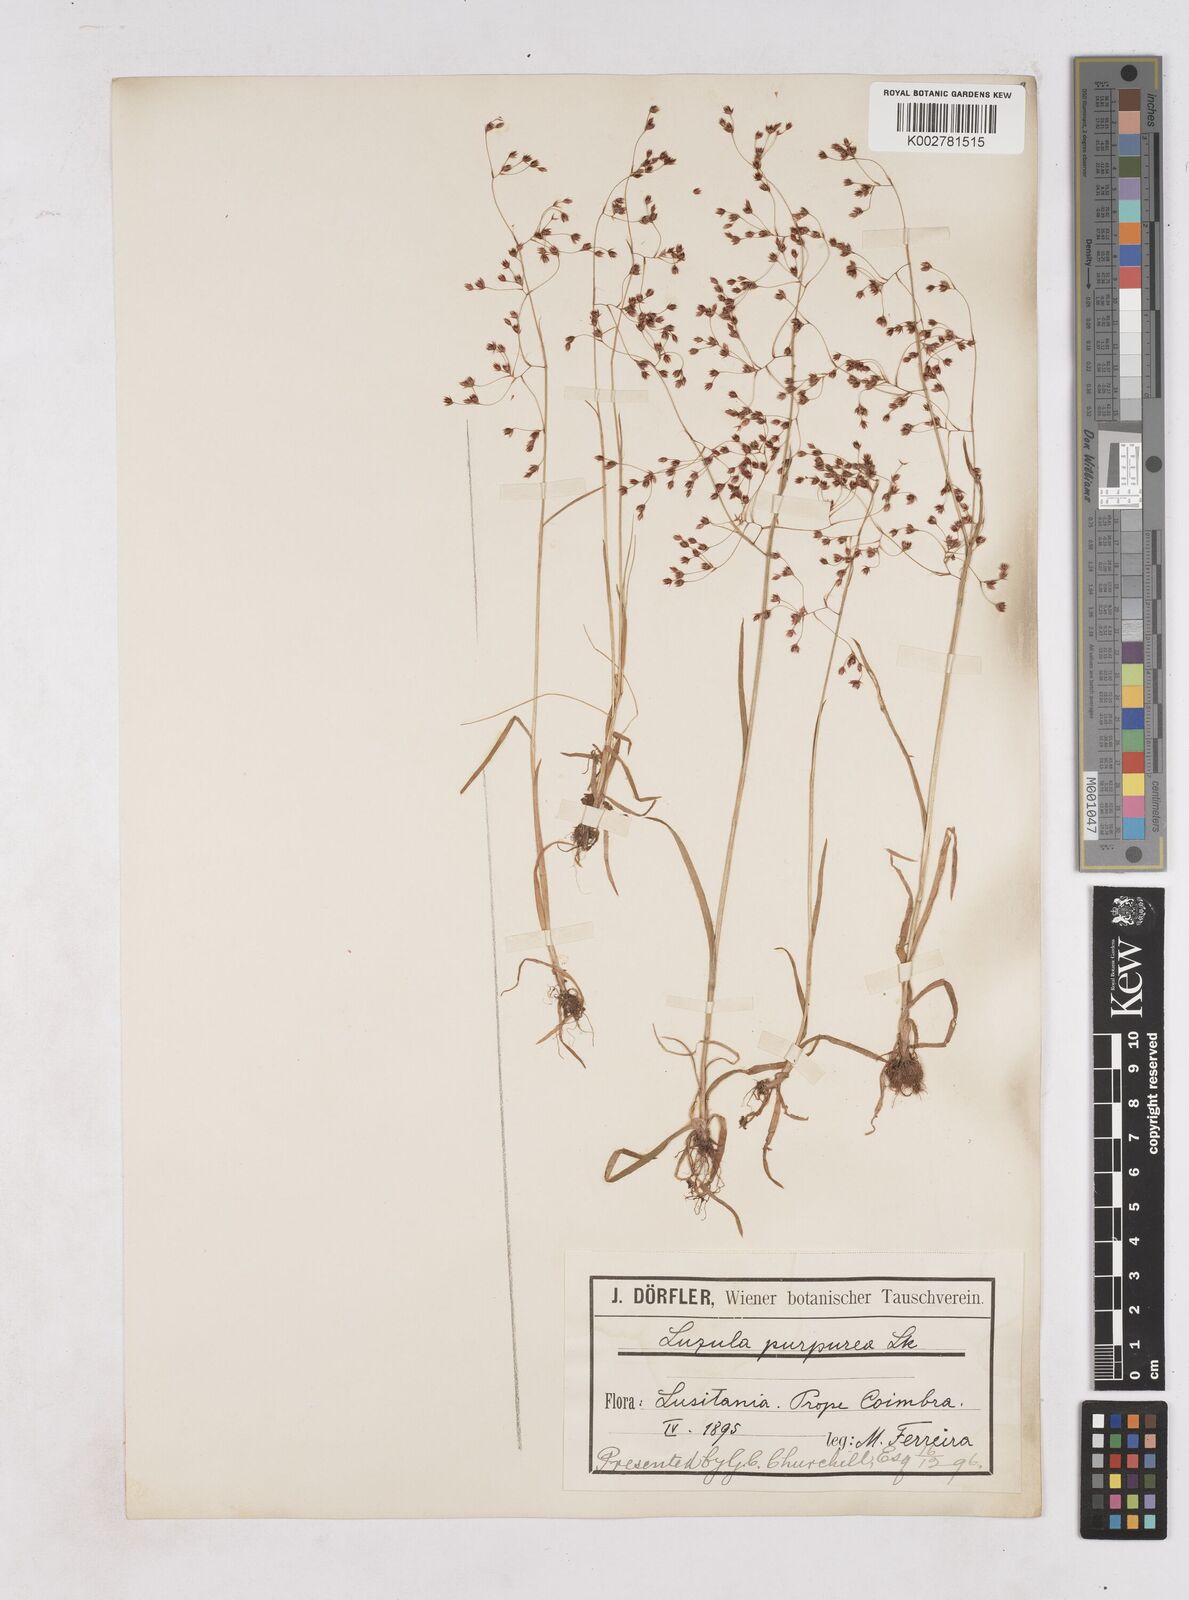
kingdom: Plantae
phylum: Tracheophyta
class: Liliopsida
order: Poales
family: Juncaceae
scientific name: Juncaceae
